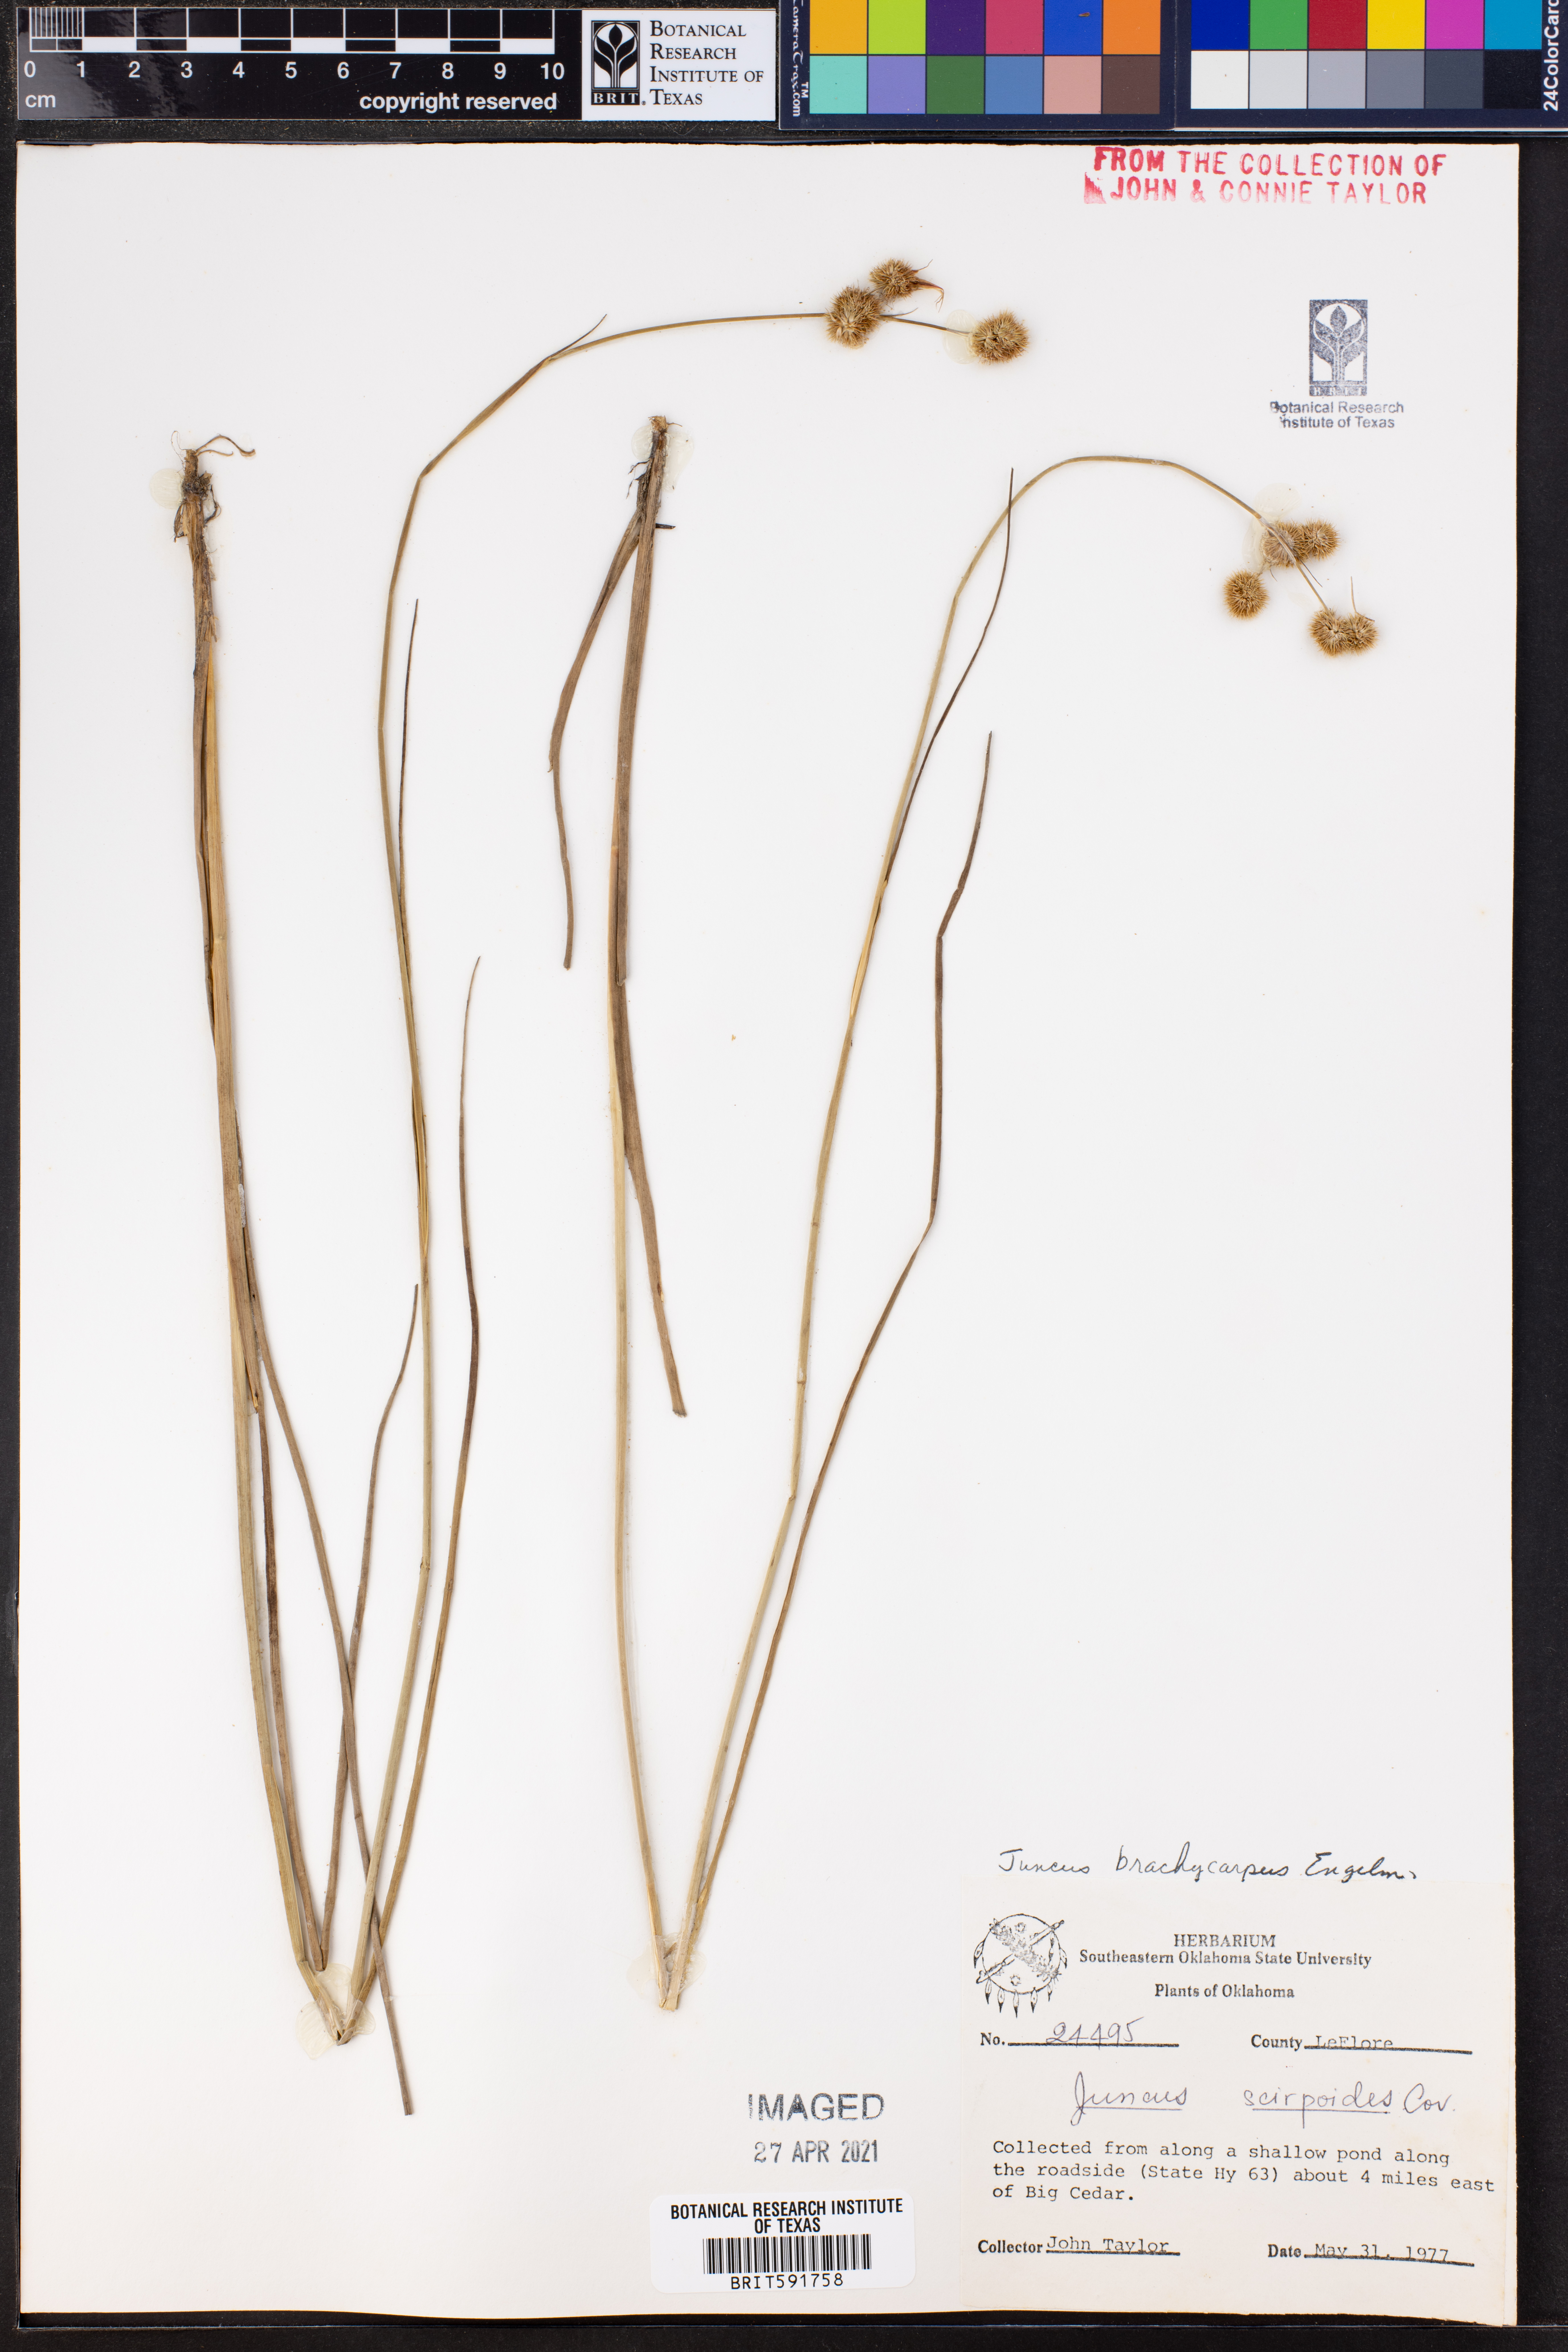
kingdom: Plantae
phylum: Tracheophyta
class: Liliopsida
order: Poales
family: Juncaceae
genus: Juncus
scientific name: Juncus brachycarpus
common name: Shore rush
